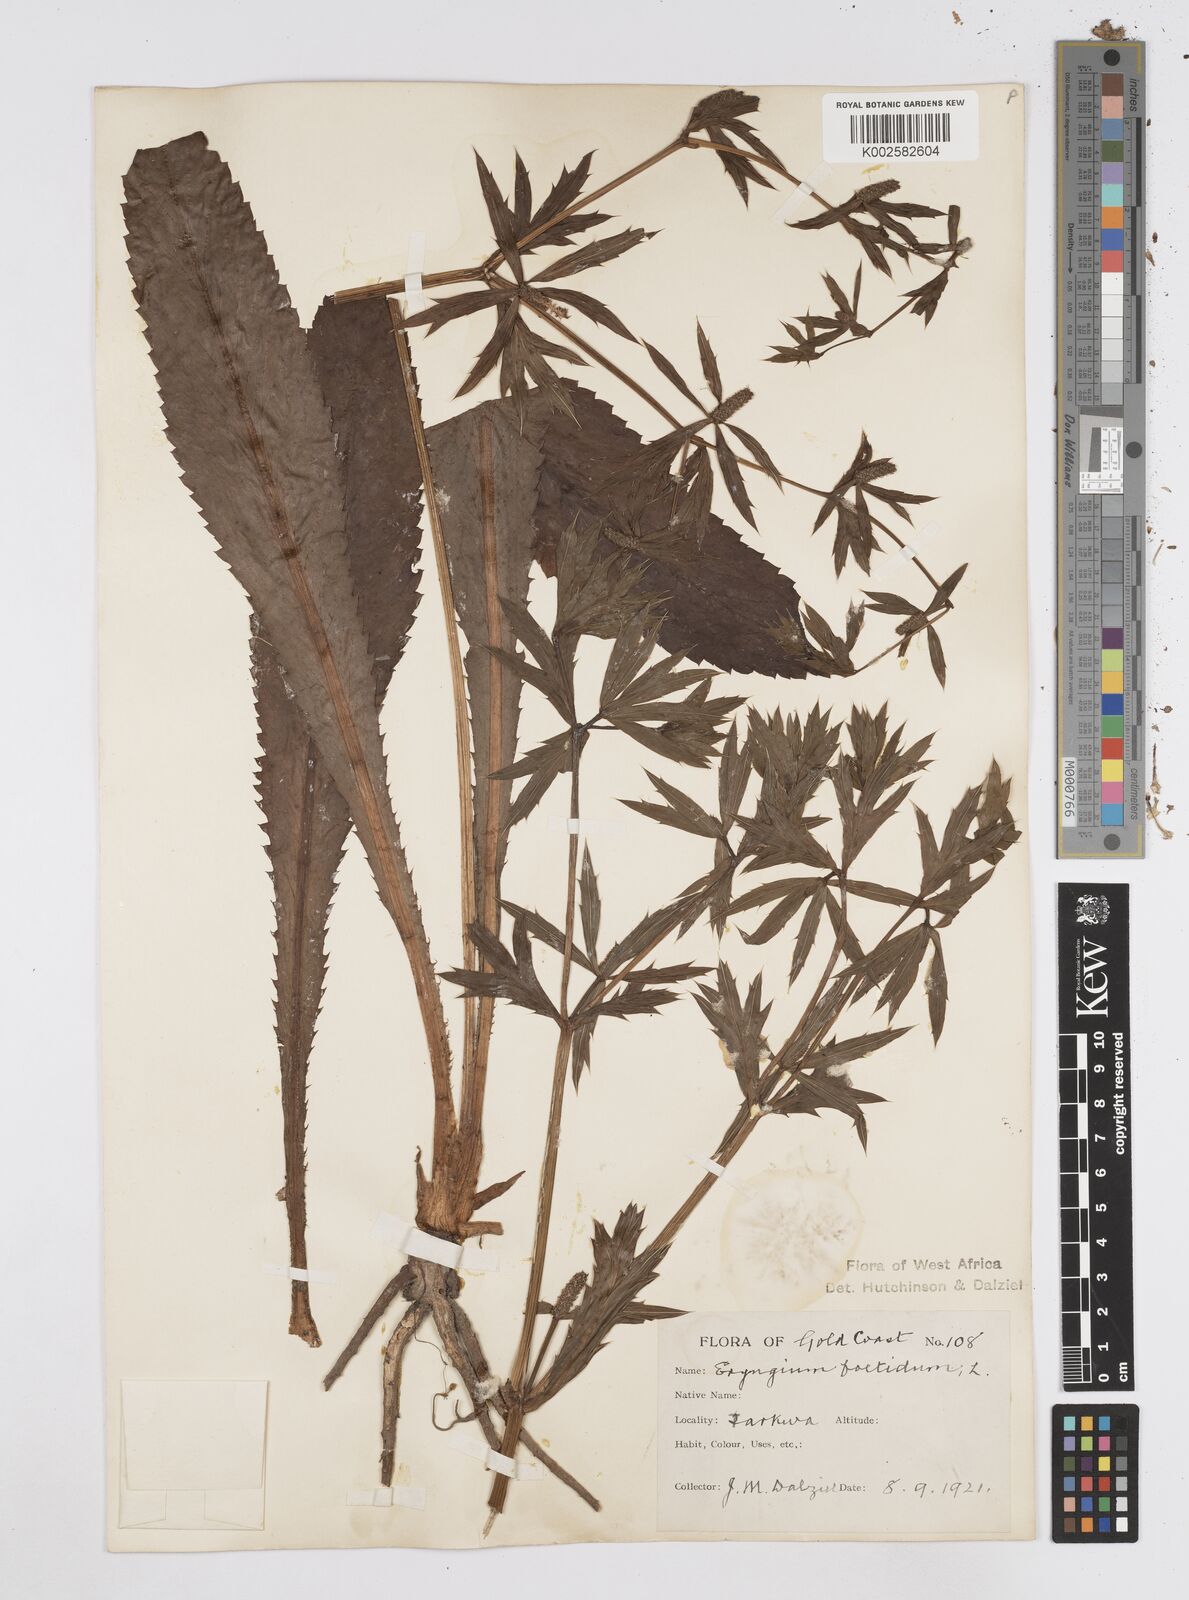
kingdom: Plantae
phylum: Tracheophyta
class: Magnoliopsida
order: Apiales
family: Apiaceae
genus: Eryngium
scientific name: Eryngium foetidum
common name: Fitweed
